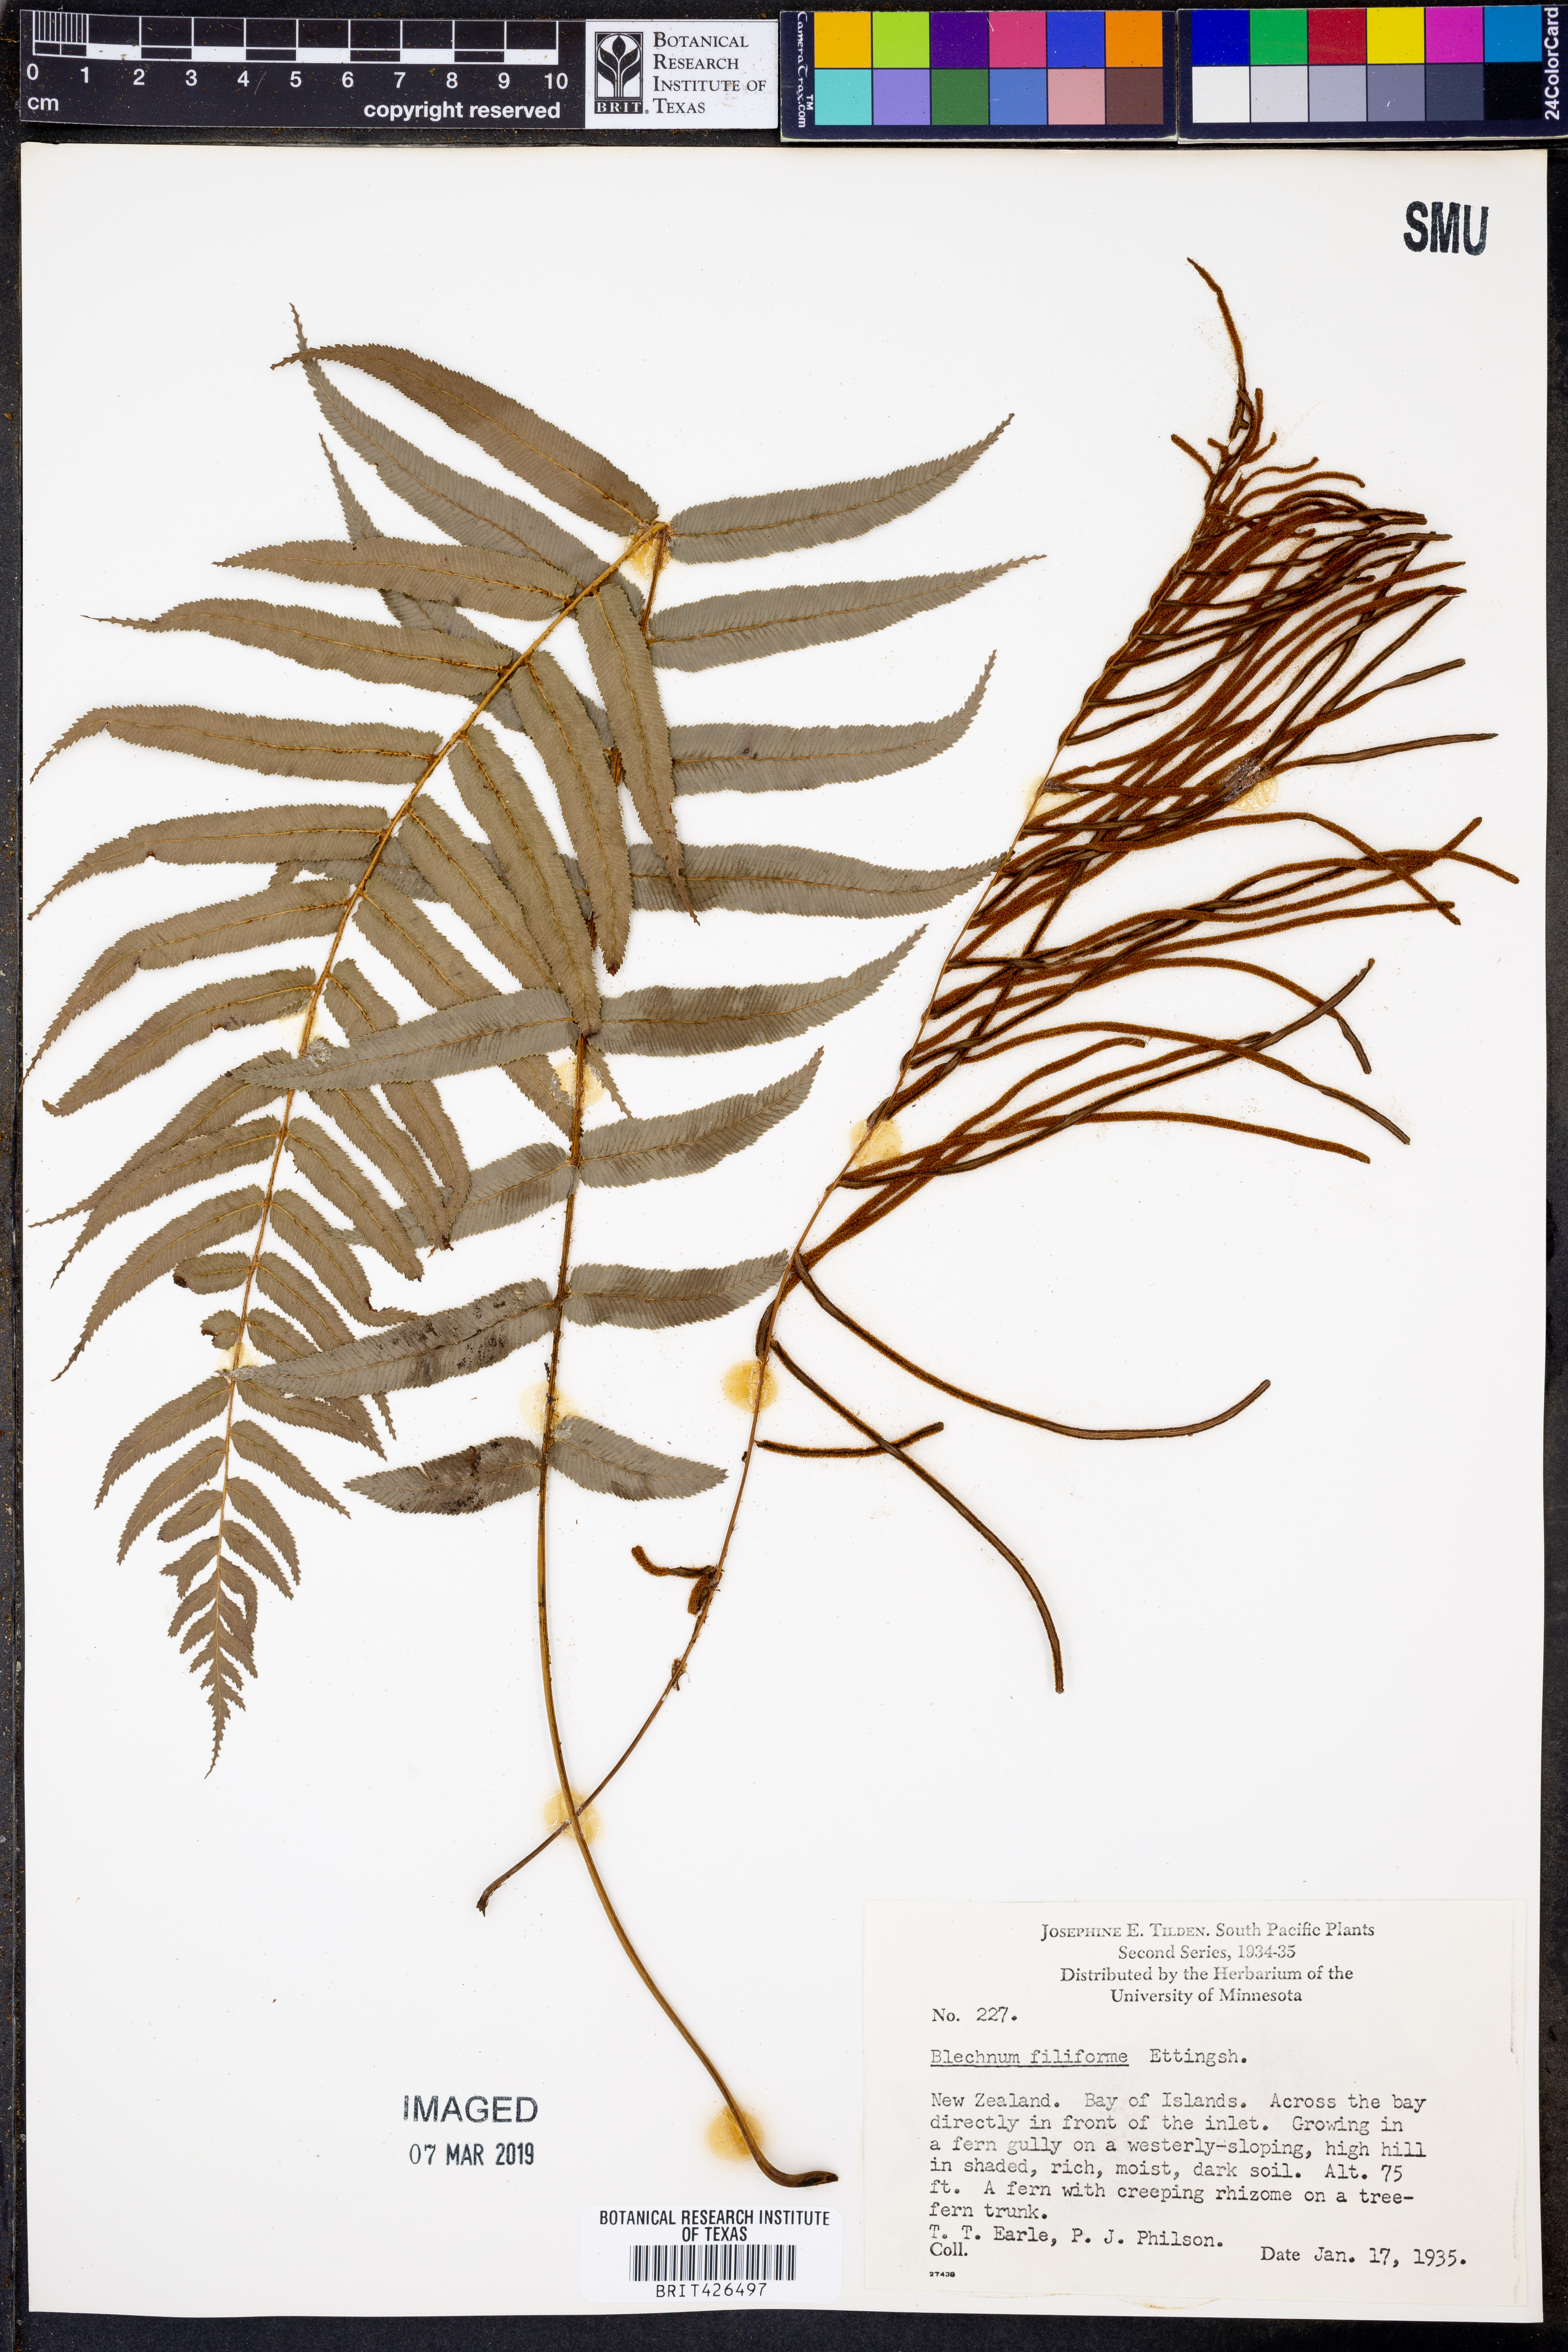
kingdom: Plantae
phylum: Tracheophyta
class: Polypodiopsida
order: Polypodiales
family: Blechnaceae
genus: Icarus
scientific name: Icarus filiformis
